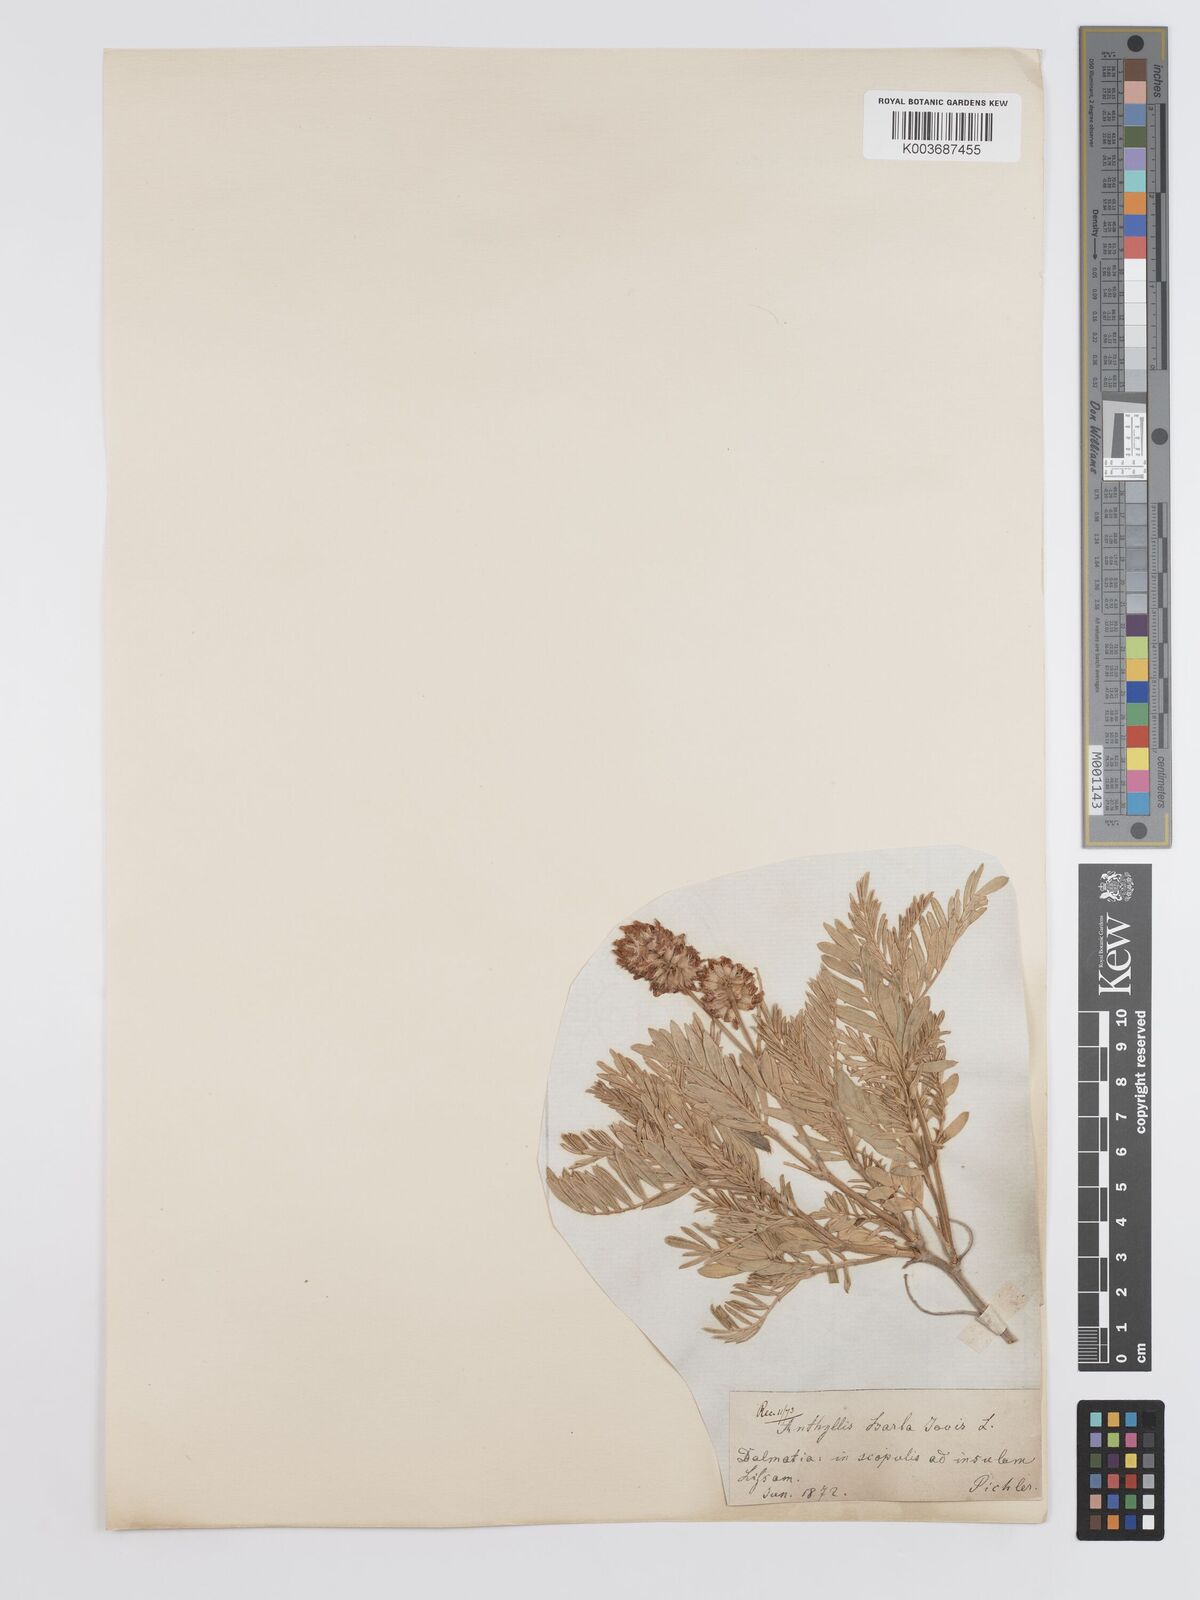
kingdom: Plantae
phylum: Tracheophyta
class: Magnoliopsida
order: Fabales
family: Fabaceae
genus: Anthyllis
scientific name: Anthyllis barba-jovis
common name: Jupiter's-beard
